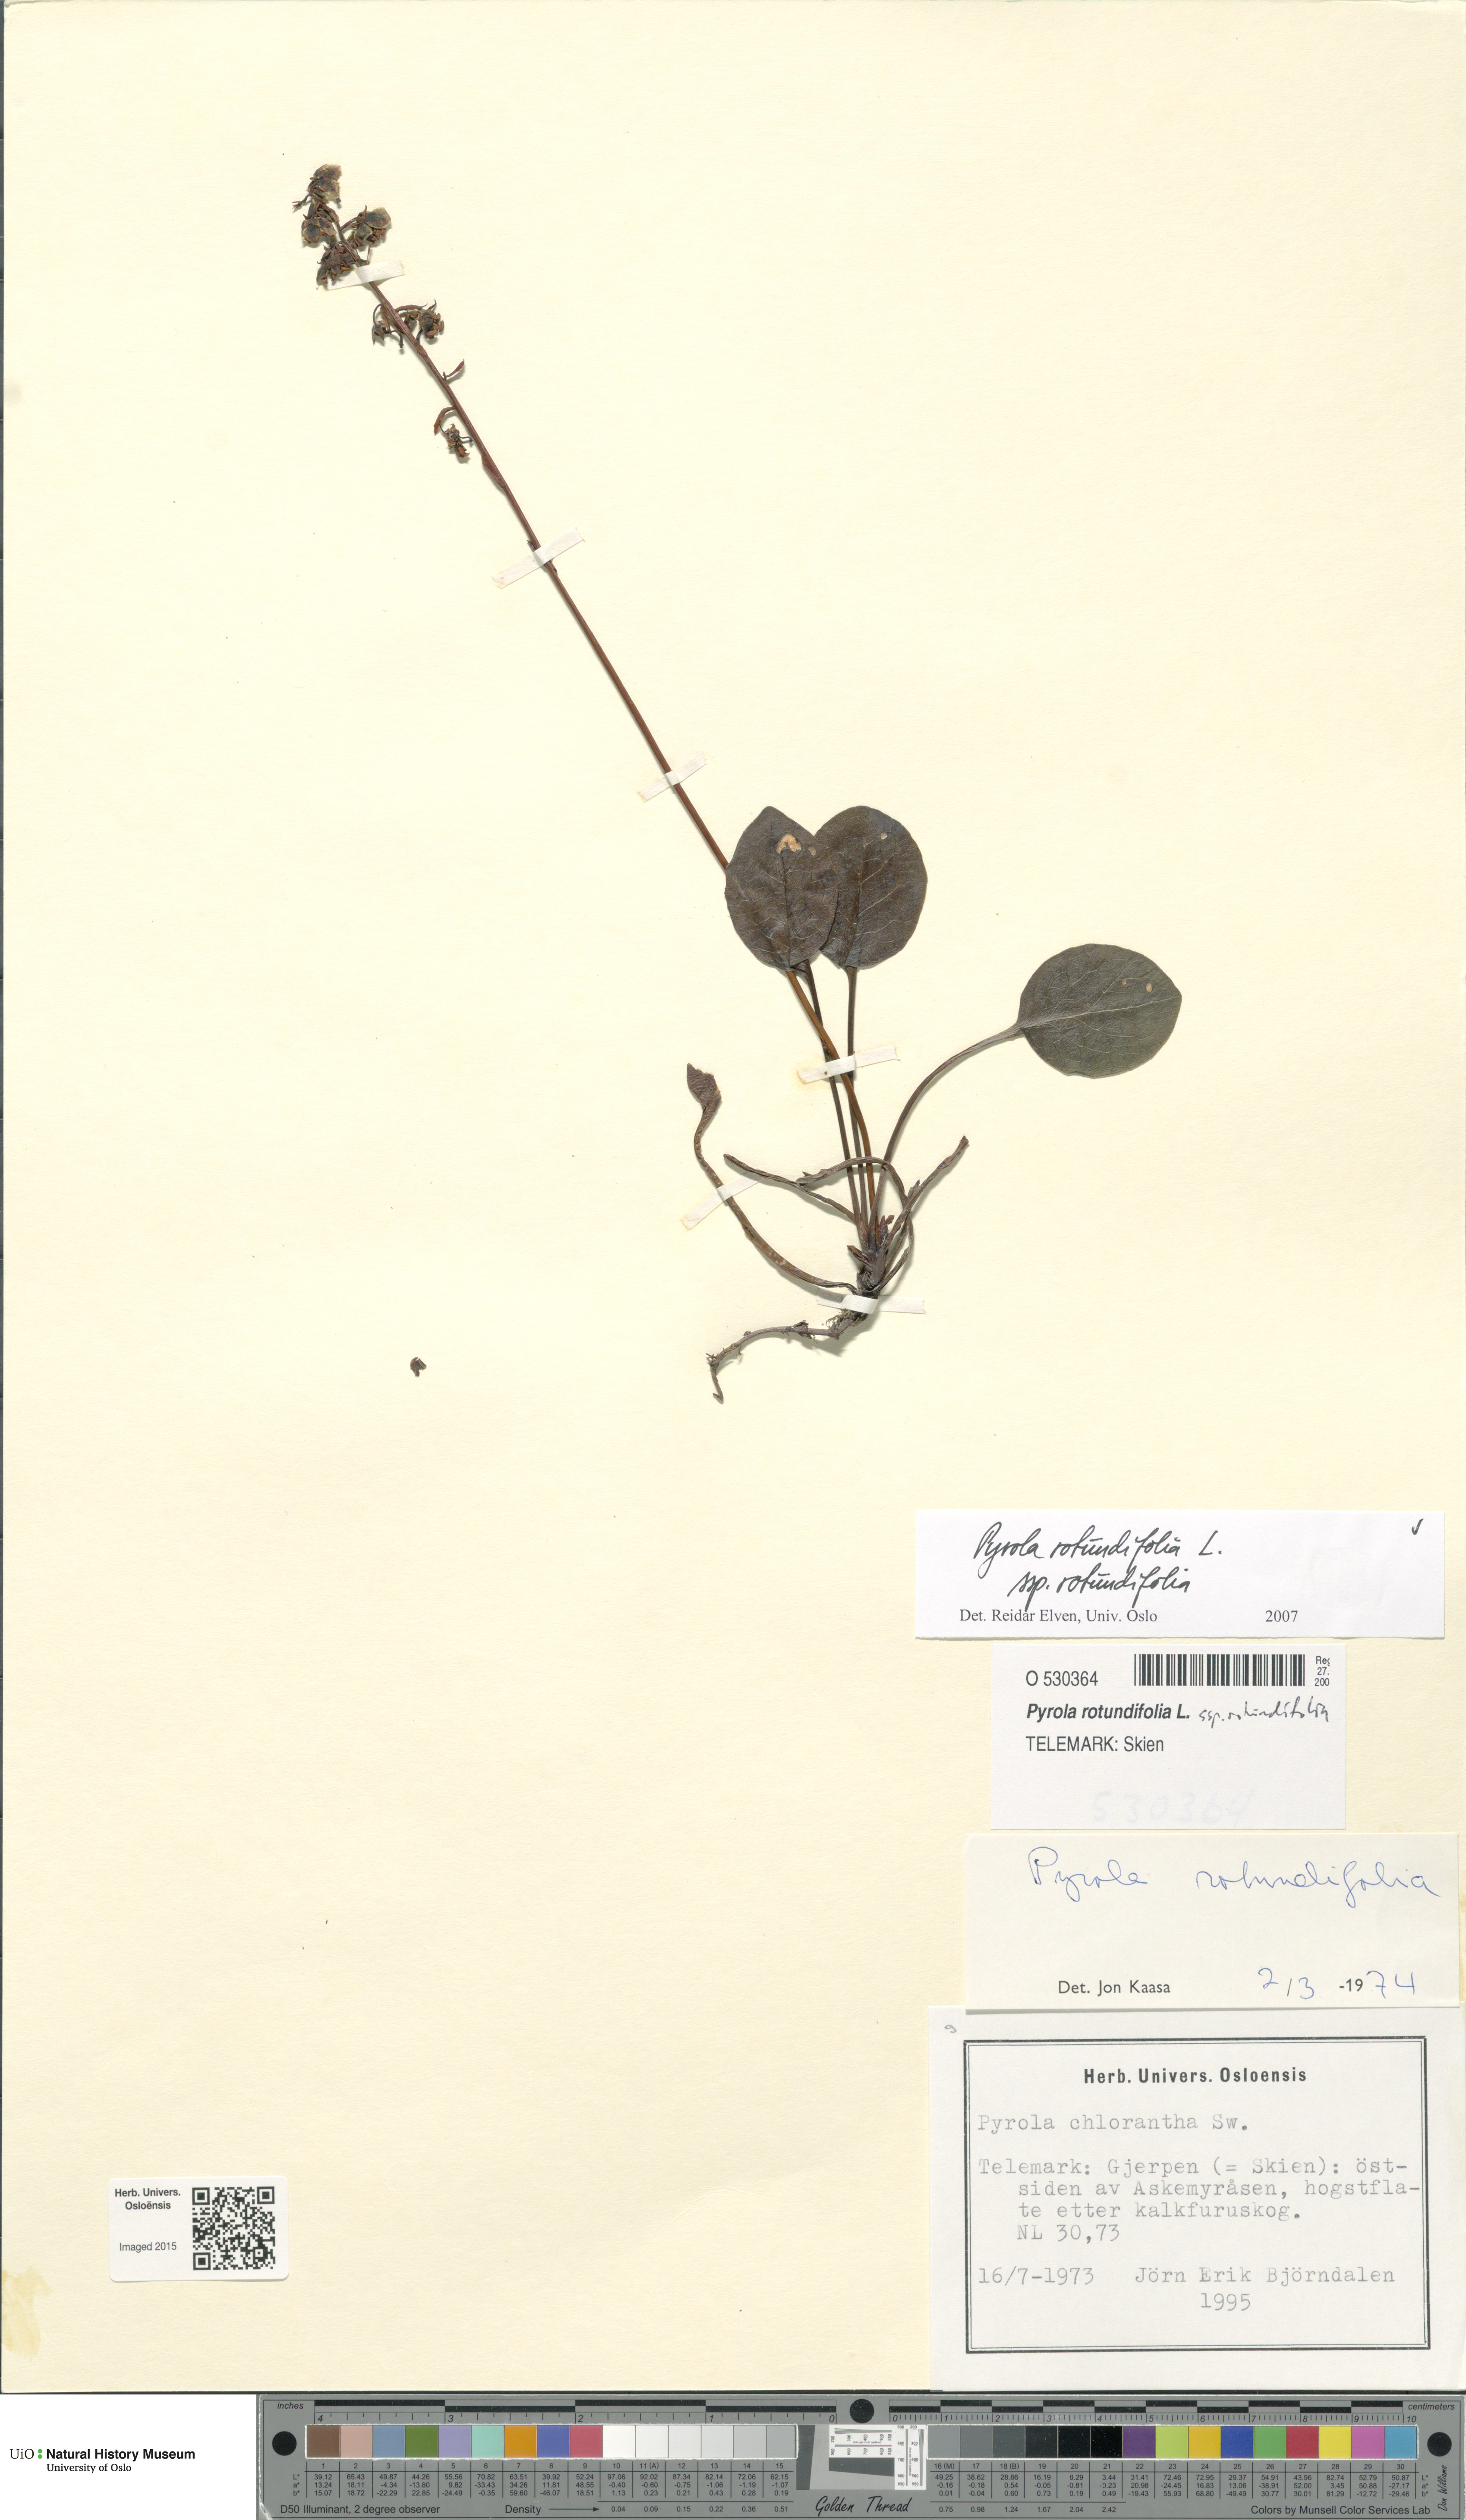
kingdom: Plantae
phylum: Tracheophyta
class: Magnoliopsida
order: Ericales
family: Ericaceae
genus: Pyrola
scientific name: Pyrola rotundifolia
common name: Round-leaved wintergreen
